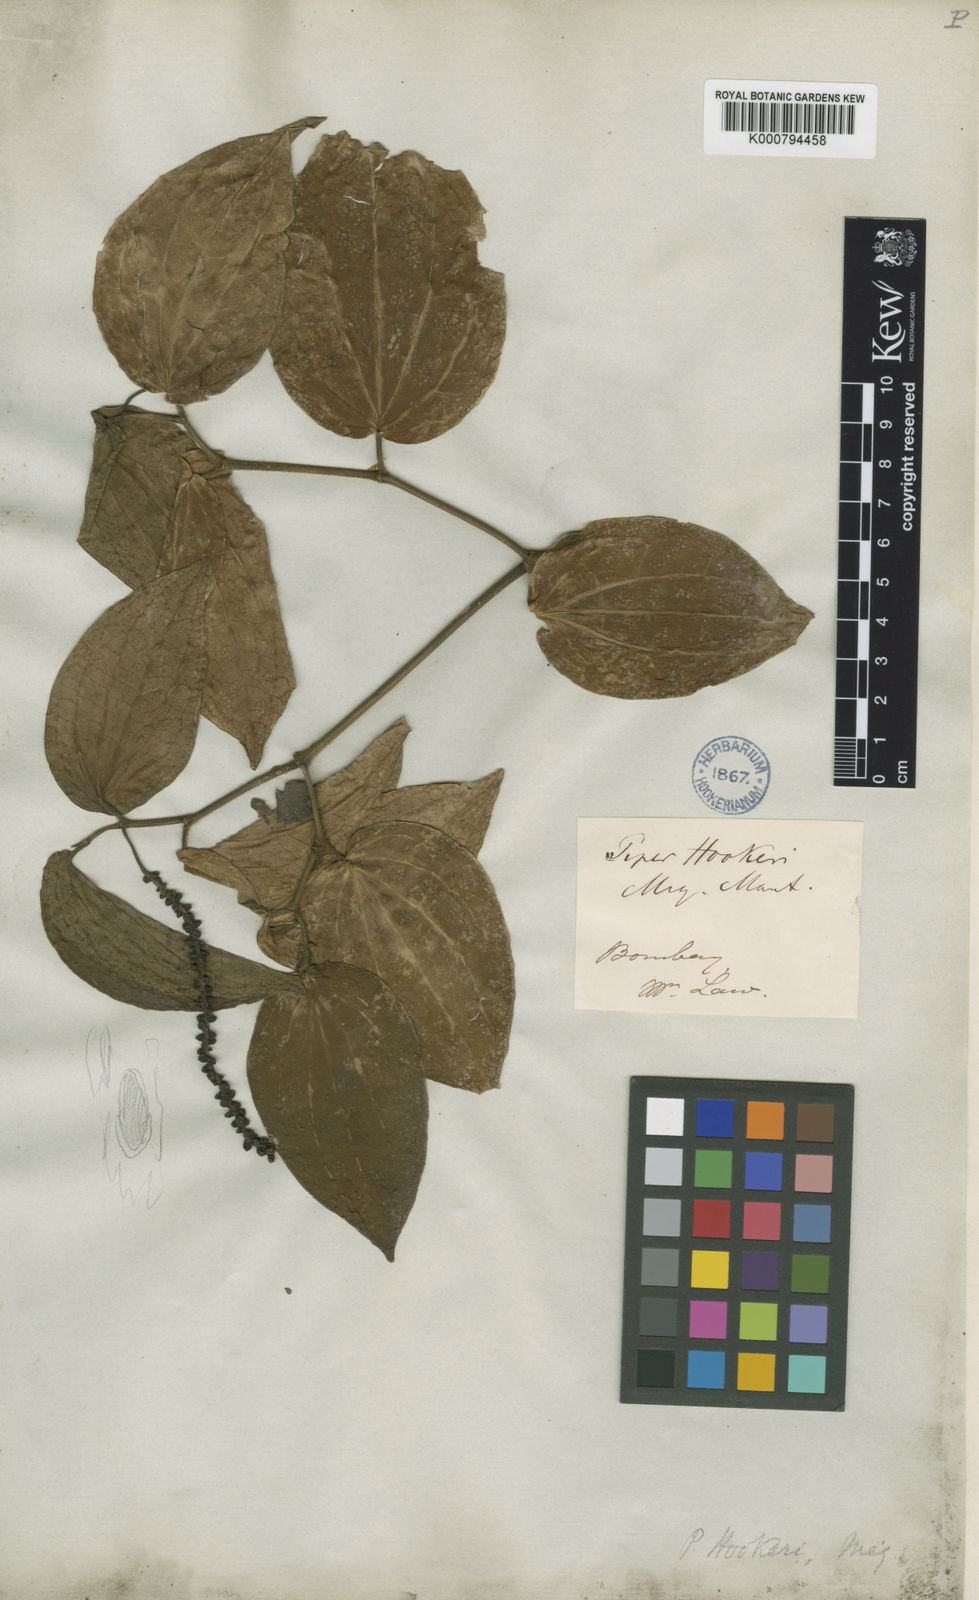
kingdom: Plantae
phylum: Tracheophyta
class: Magnoliopsida
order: Piperales
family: Piperaceae
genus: Piper
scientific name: Piper hookeri
